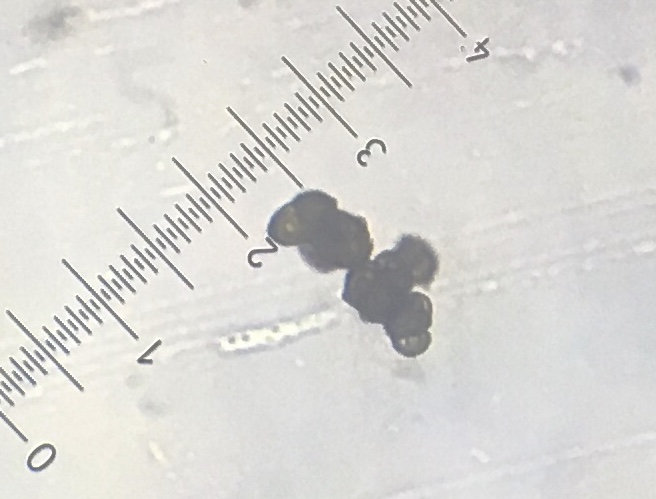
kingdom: Fungi
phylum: Ascomycota
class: Leotiomycetes
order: Helotiales
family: Mollisiaceae
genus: Trimmatostroma
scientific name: Trimmatostroma betulinum
